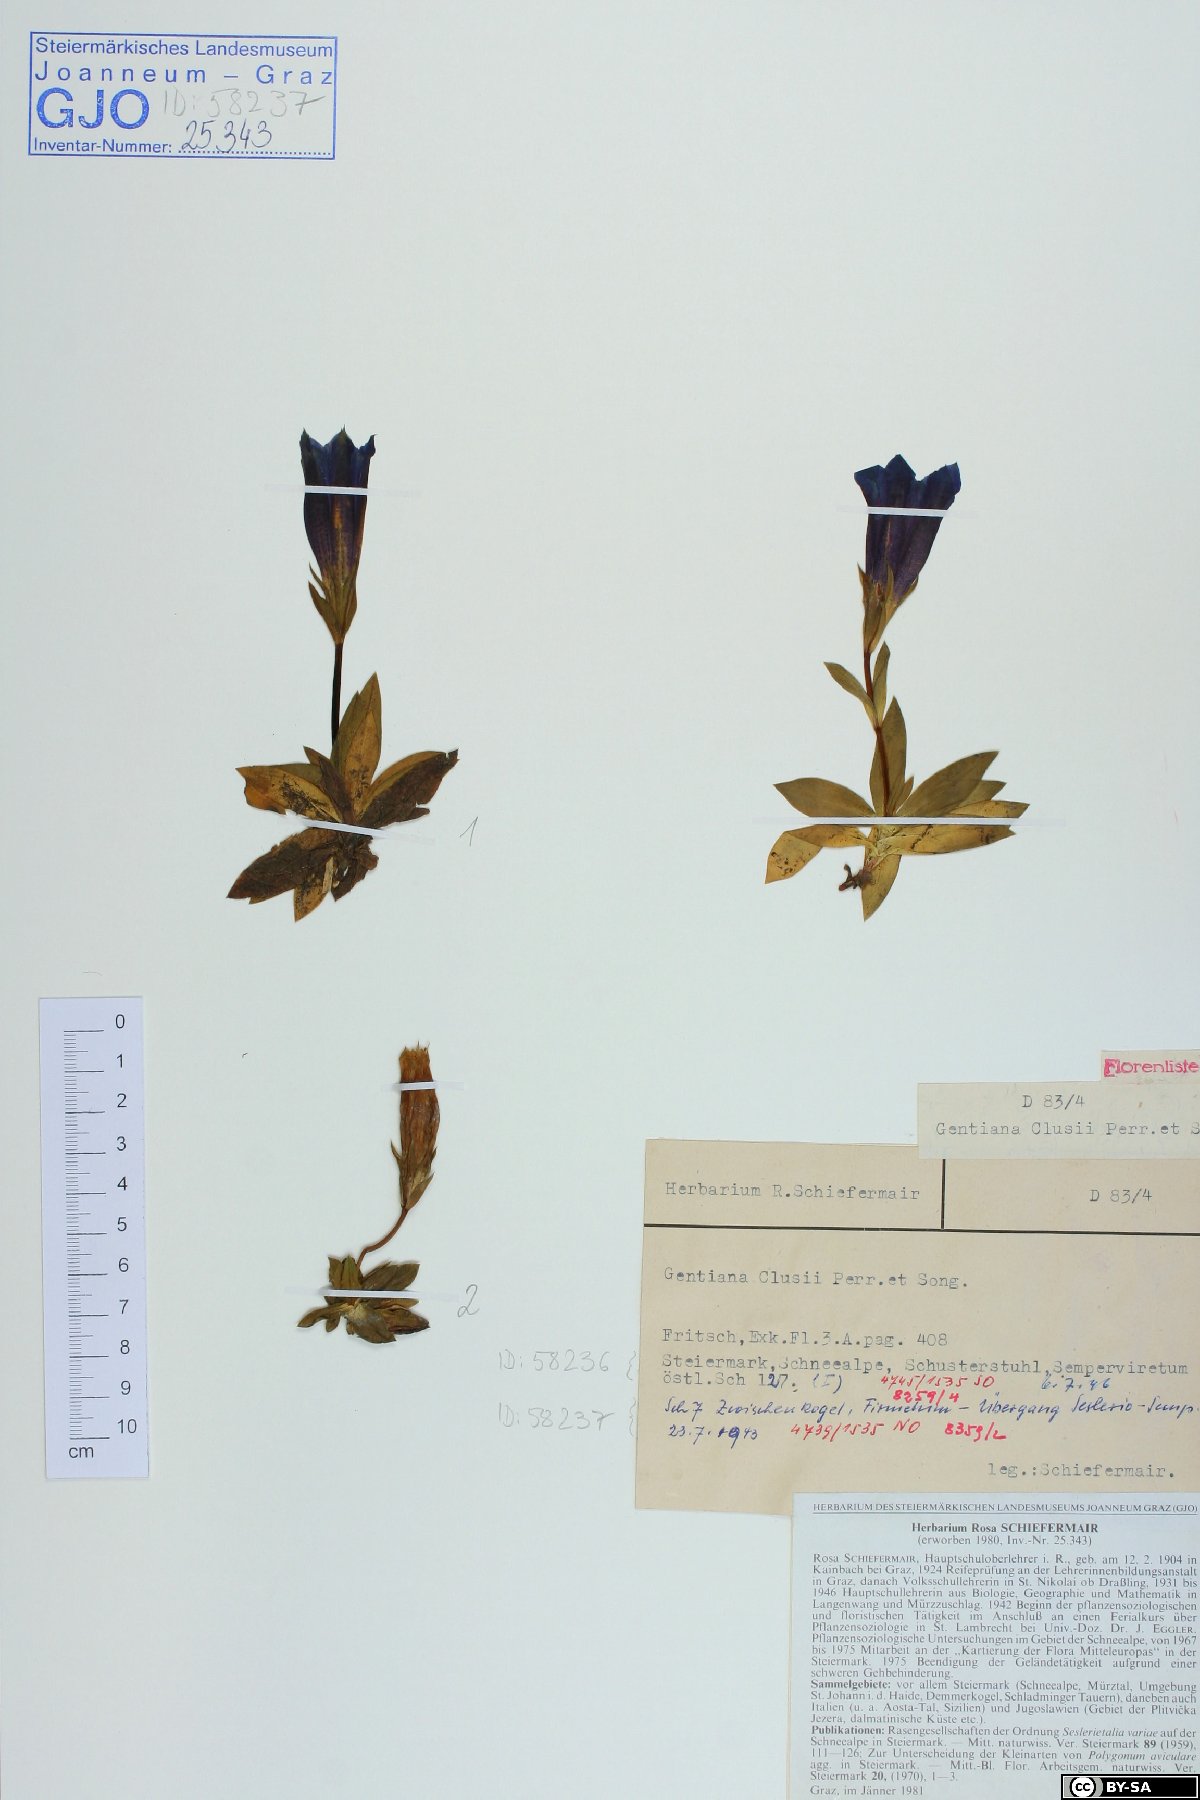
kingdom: Plantae
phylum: Tracheophyta
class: Magnoliopsida
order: Gentianales
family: Gentianaceae
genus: Gentiana
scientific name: Gentiana clusii
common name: Trumpet gentian
